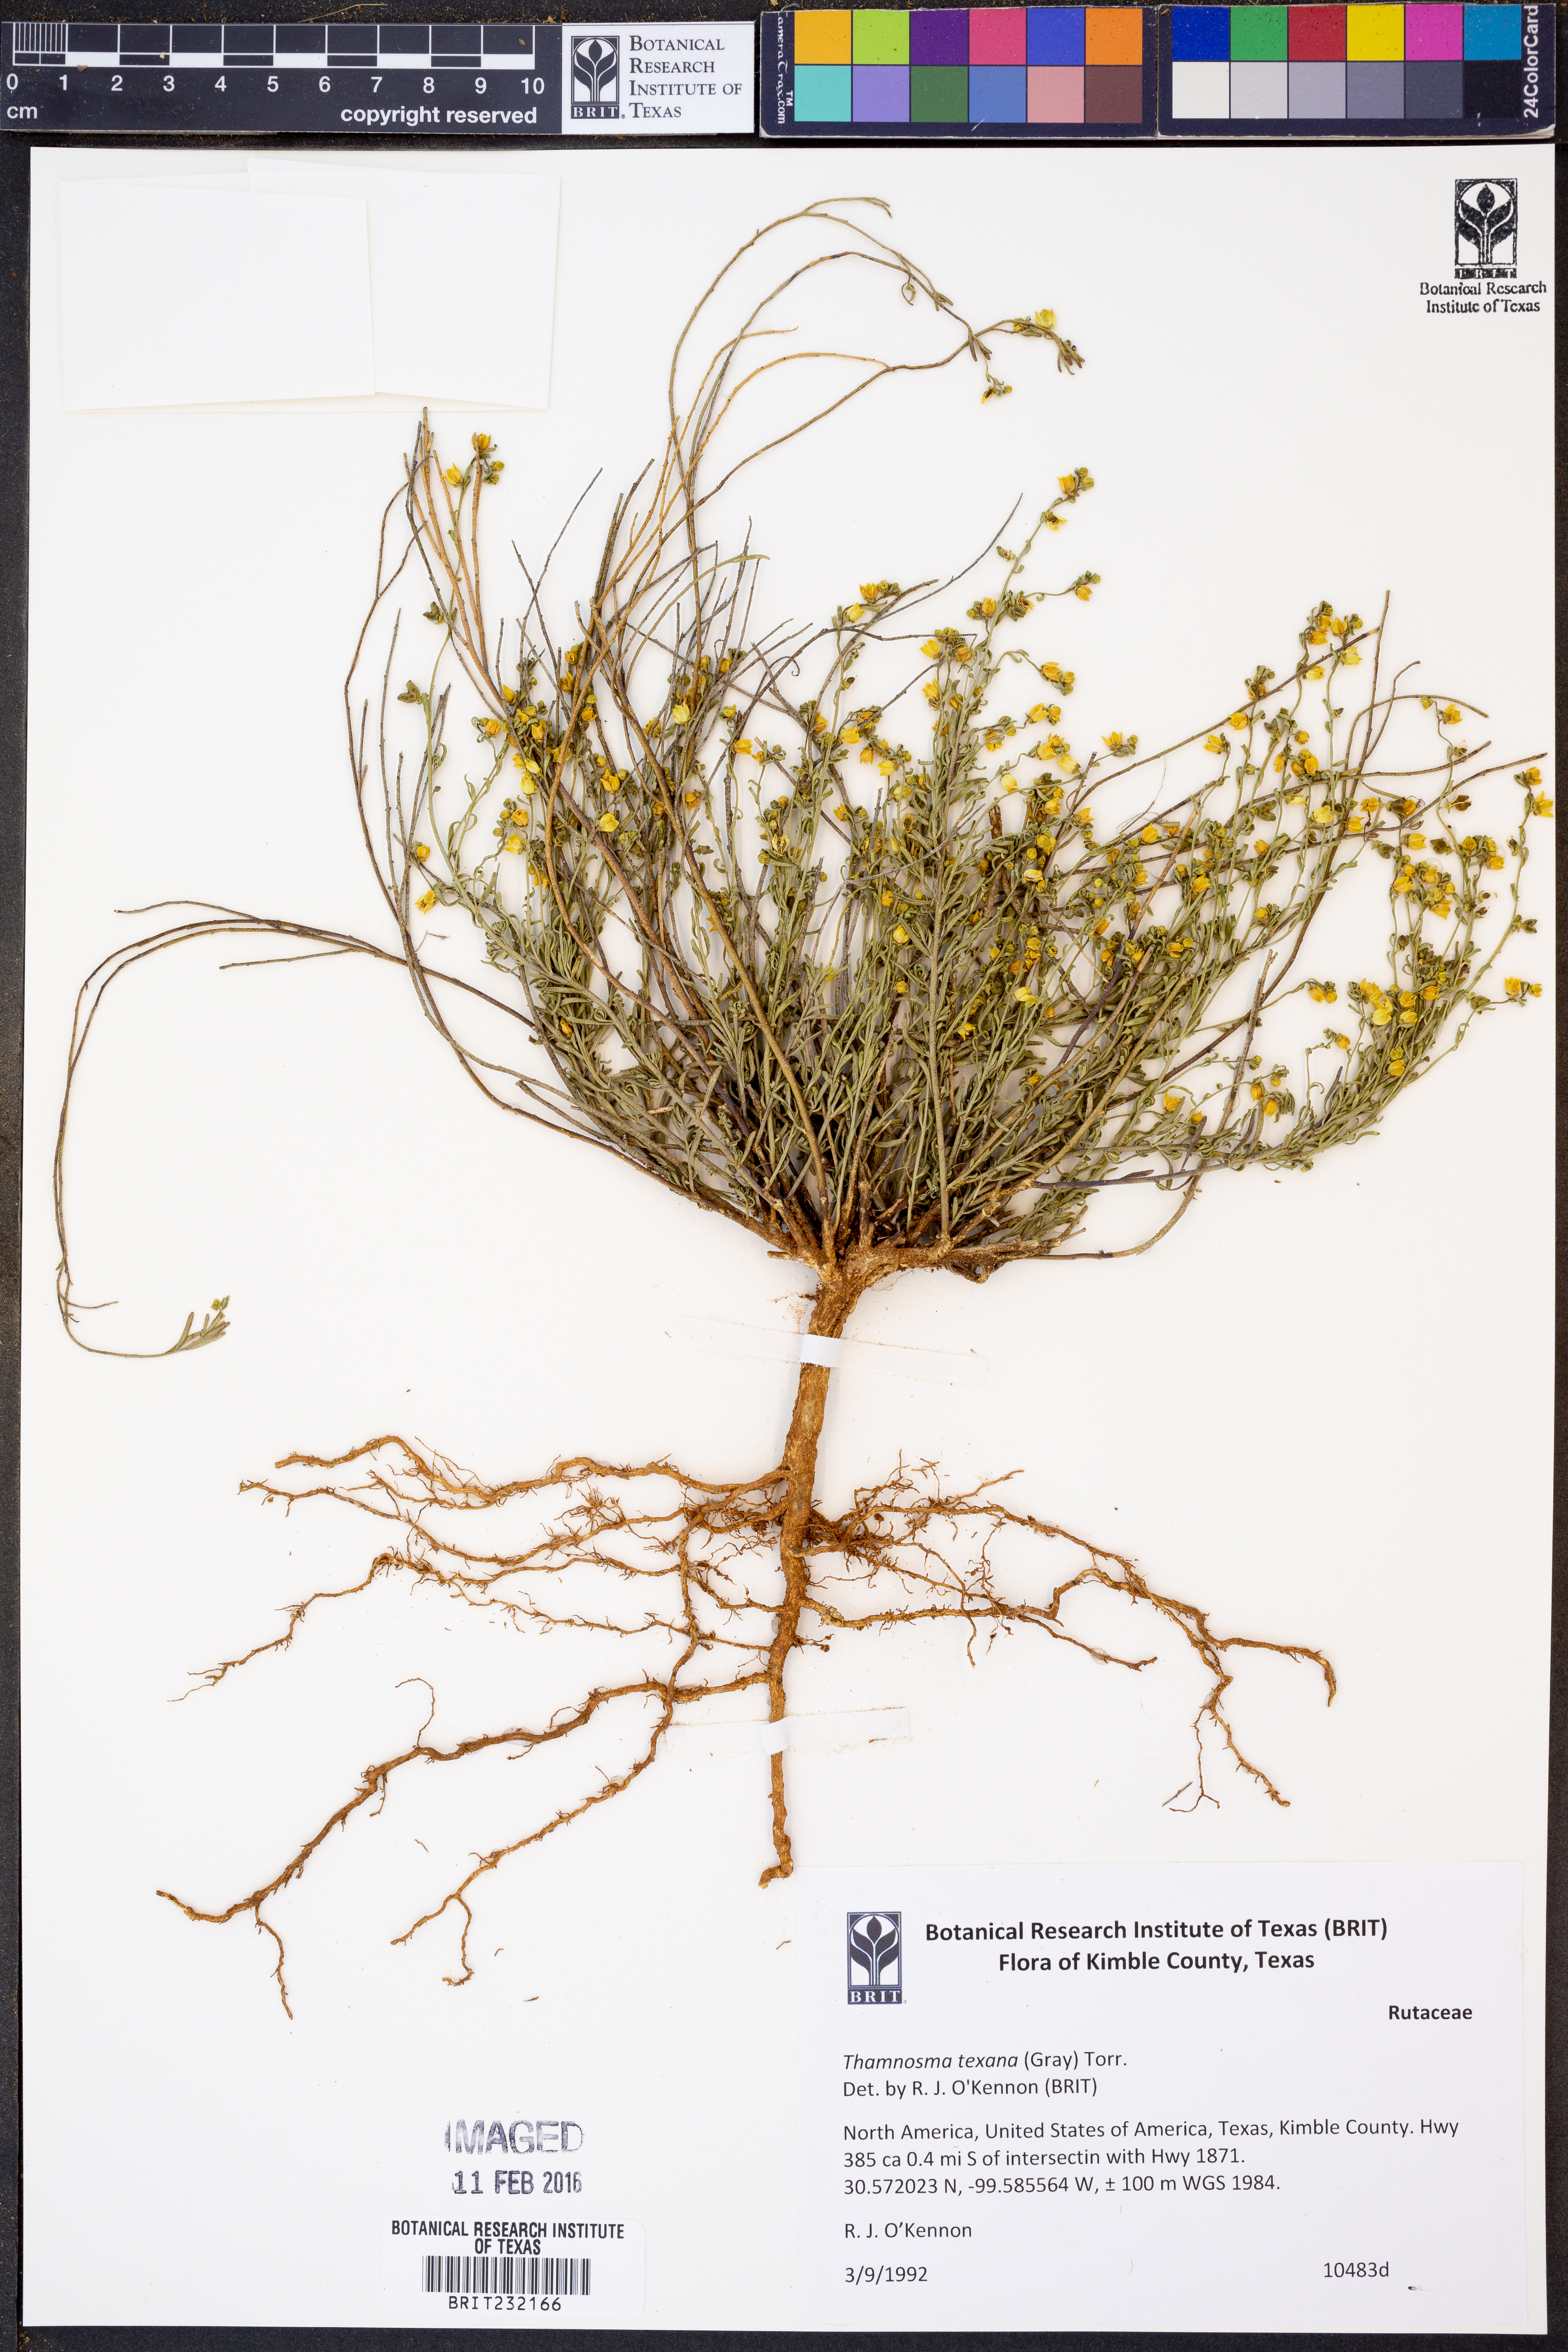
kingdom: Plantae
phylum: Tracheophyta
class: Magnoliopsida
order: Sapindales
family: Rutaceae
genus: Thamnosma
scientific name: Thamnosma texana
